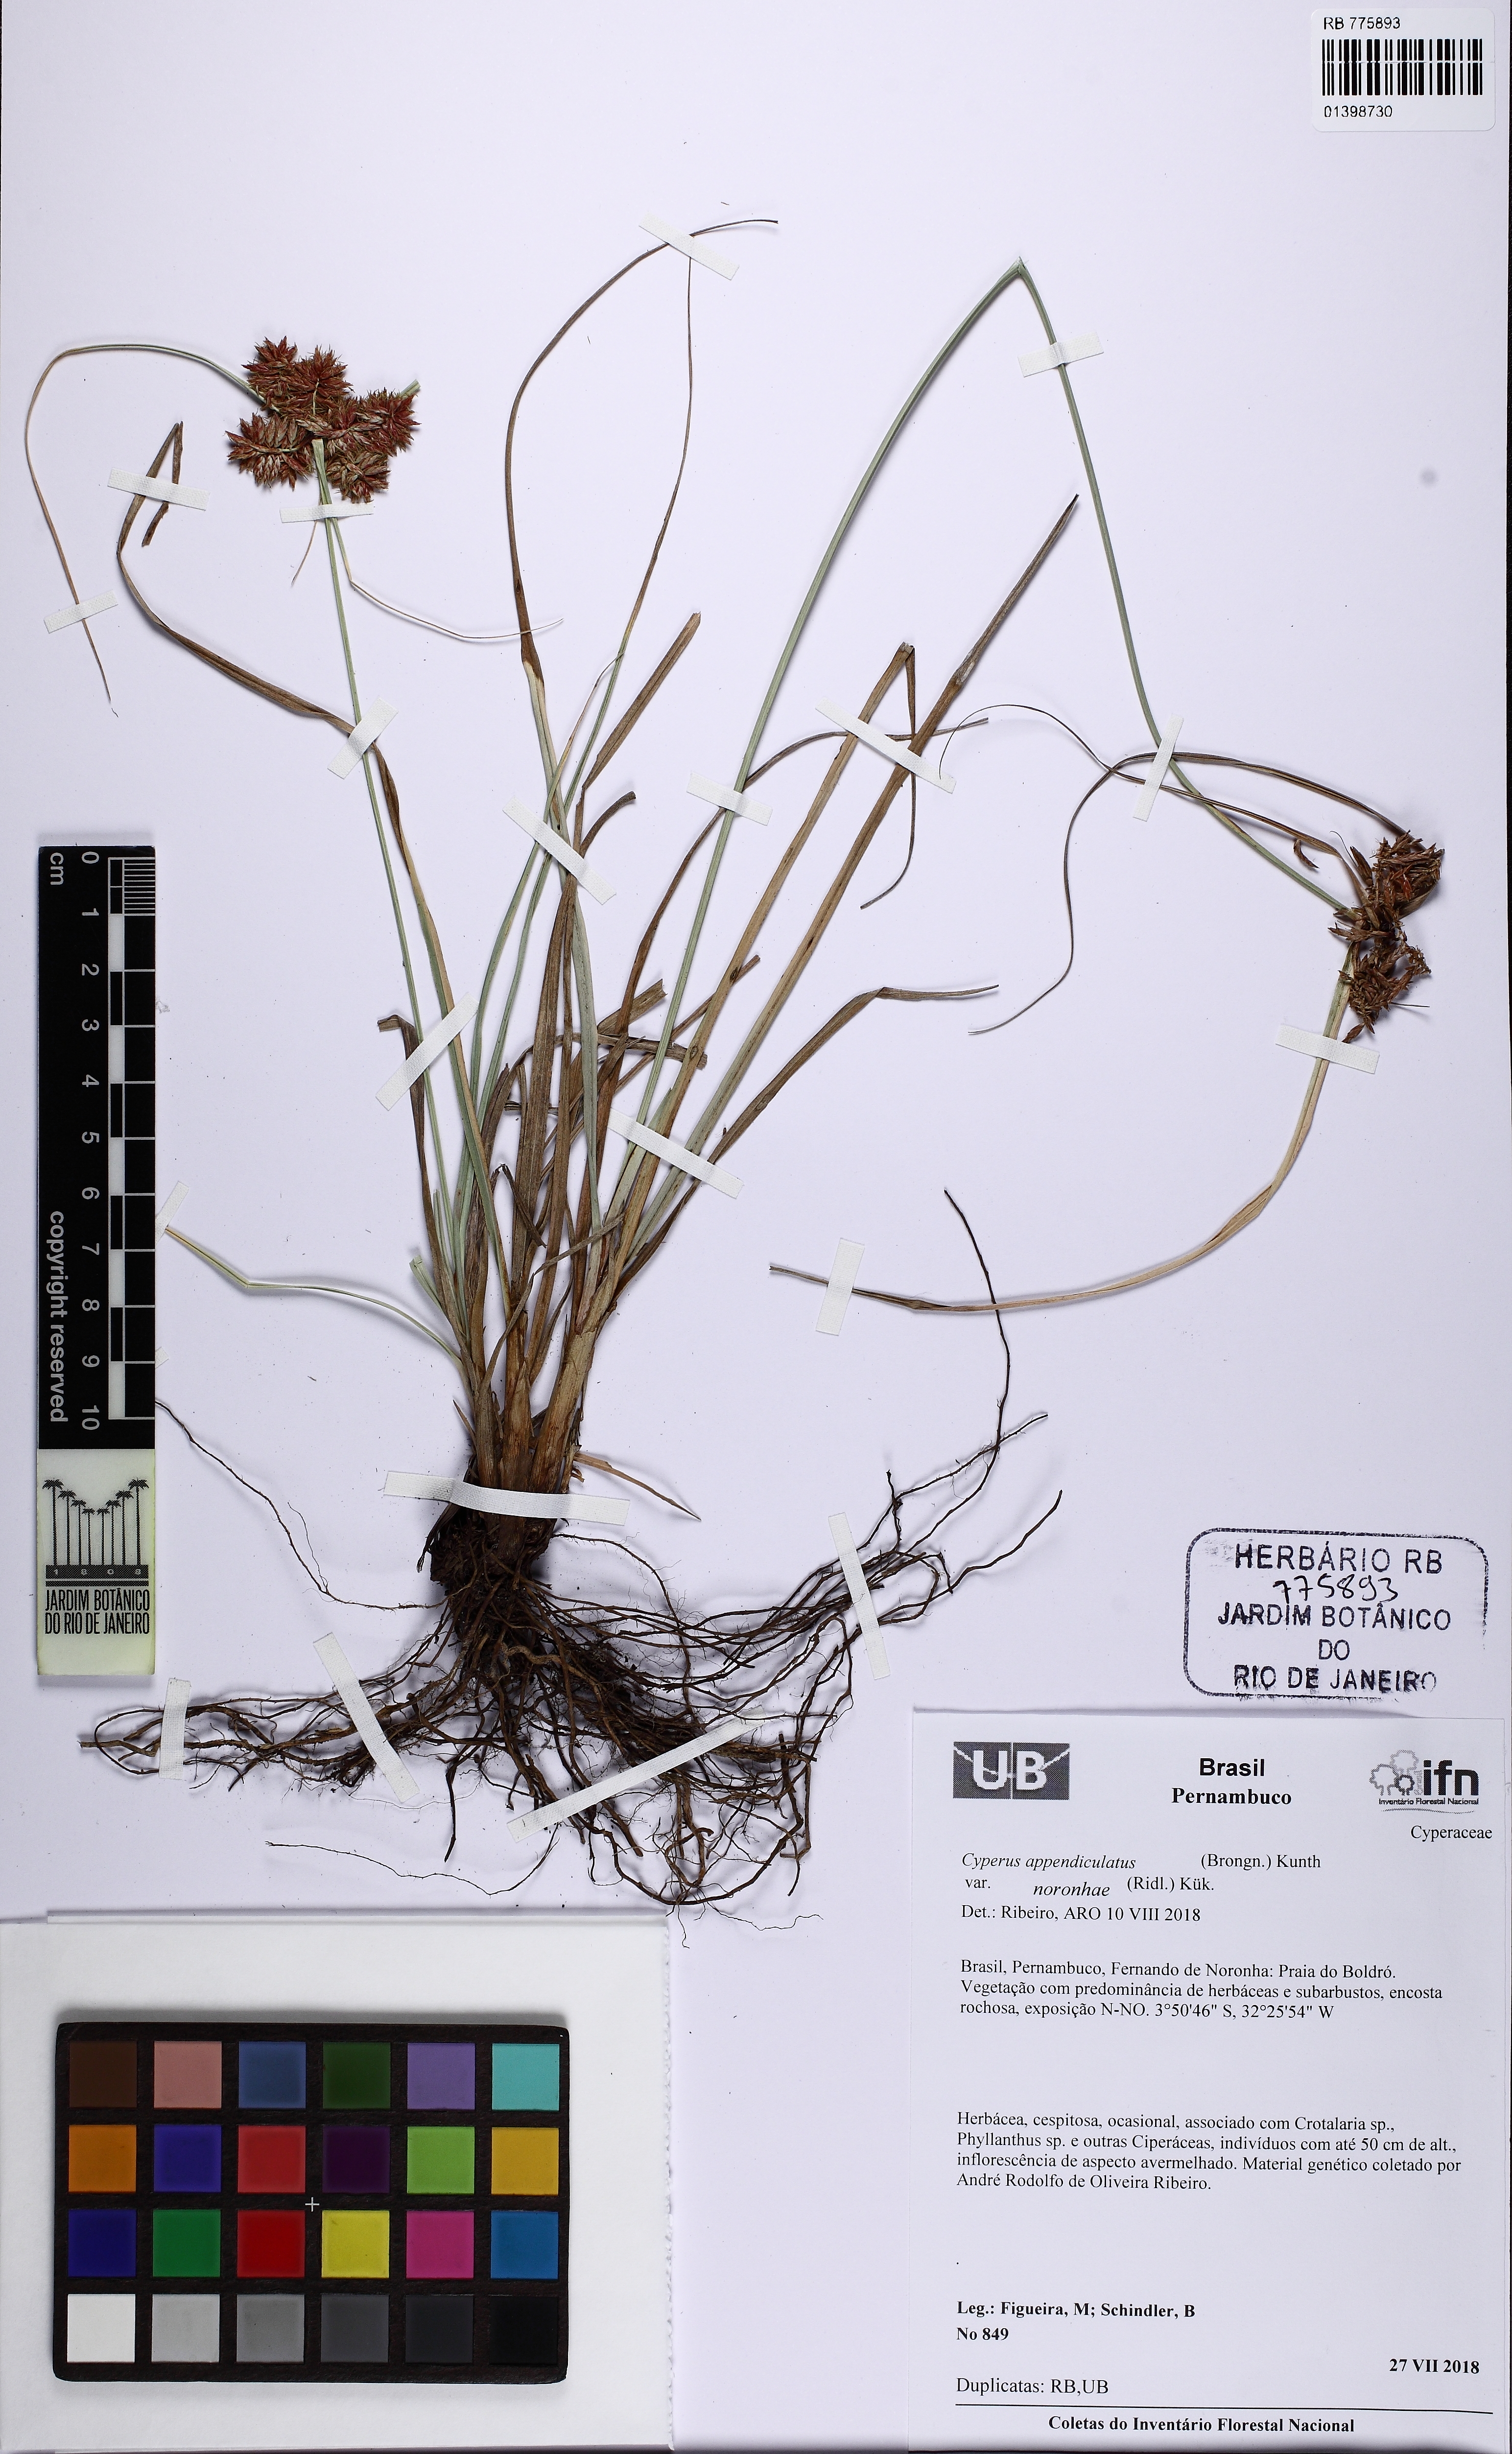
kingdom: Plantae
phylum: Tracheophyta
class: Liliopsida
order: Poales
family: Cyperaceae
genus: Cyperus
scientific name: Cyperus appendiculatus
